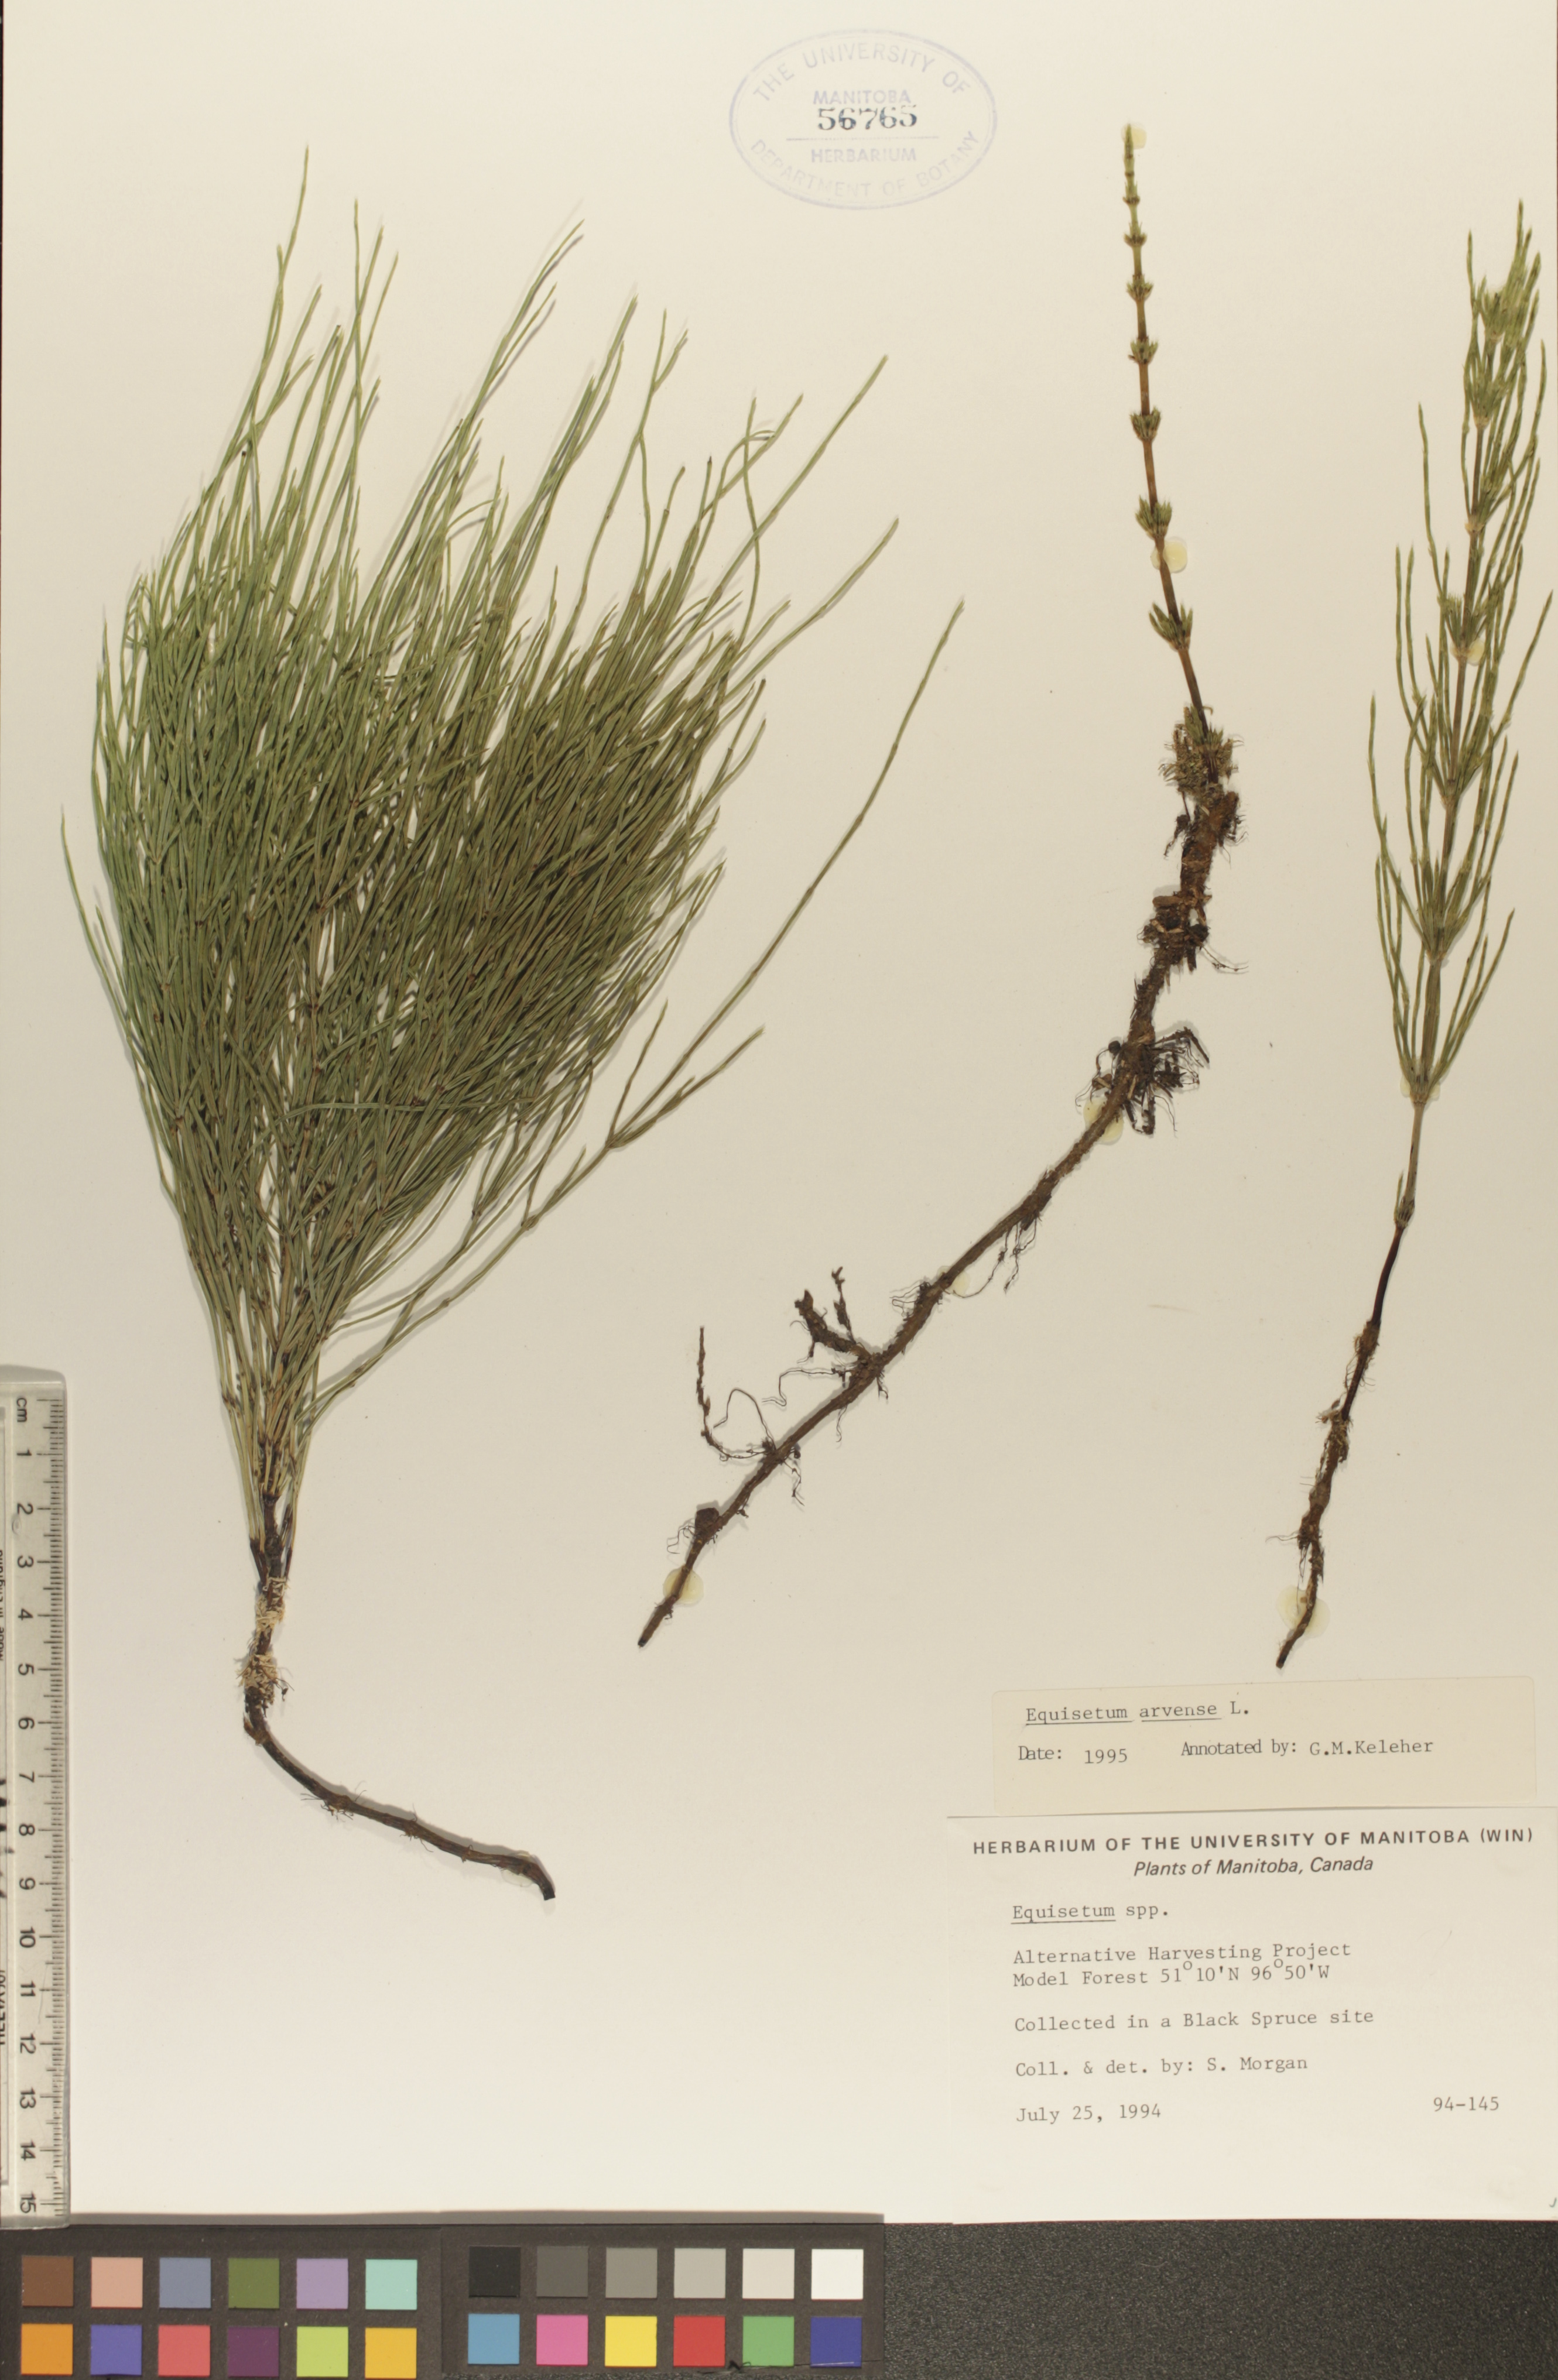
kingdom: Plantae
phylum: Tracheophyta
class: Polypodiopsida
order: Equisetales
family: Equisetaceae
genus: Equisetum
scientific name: Equisetum arvense
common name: Field horsetail
